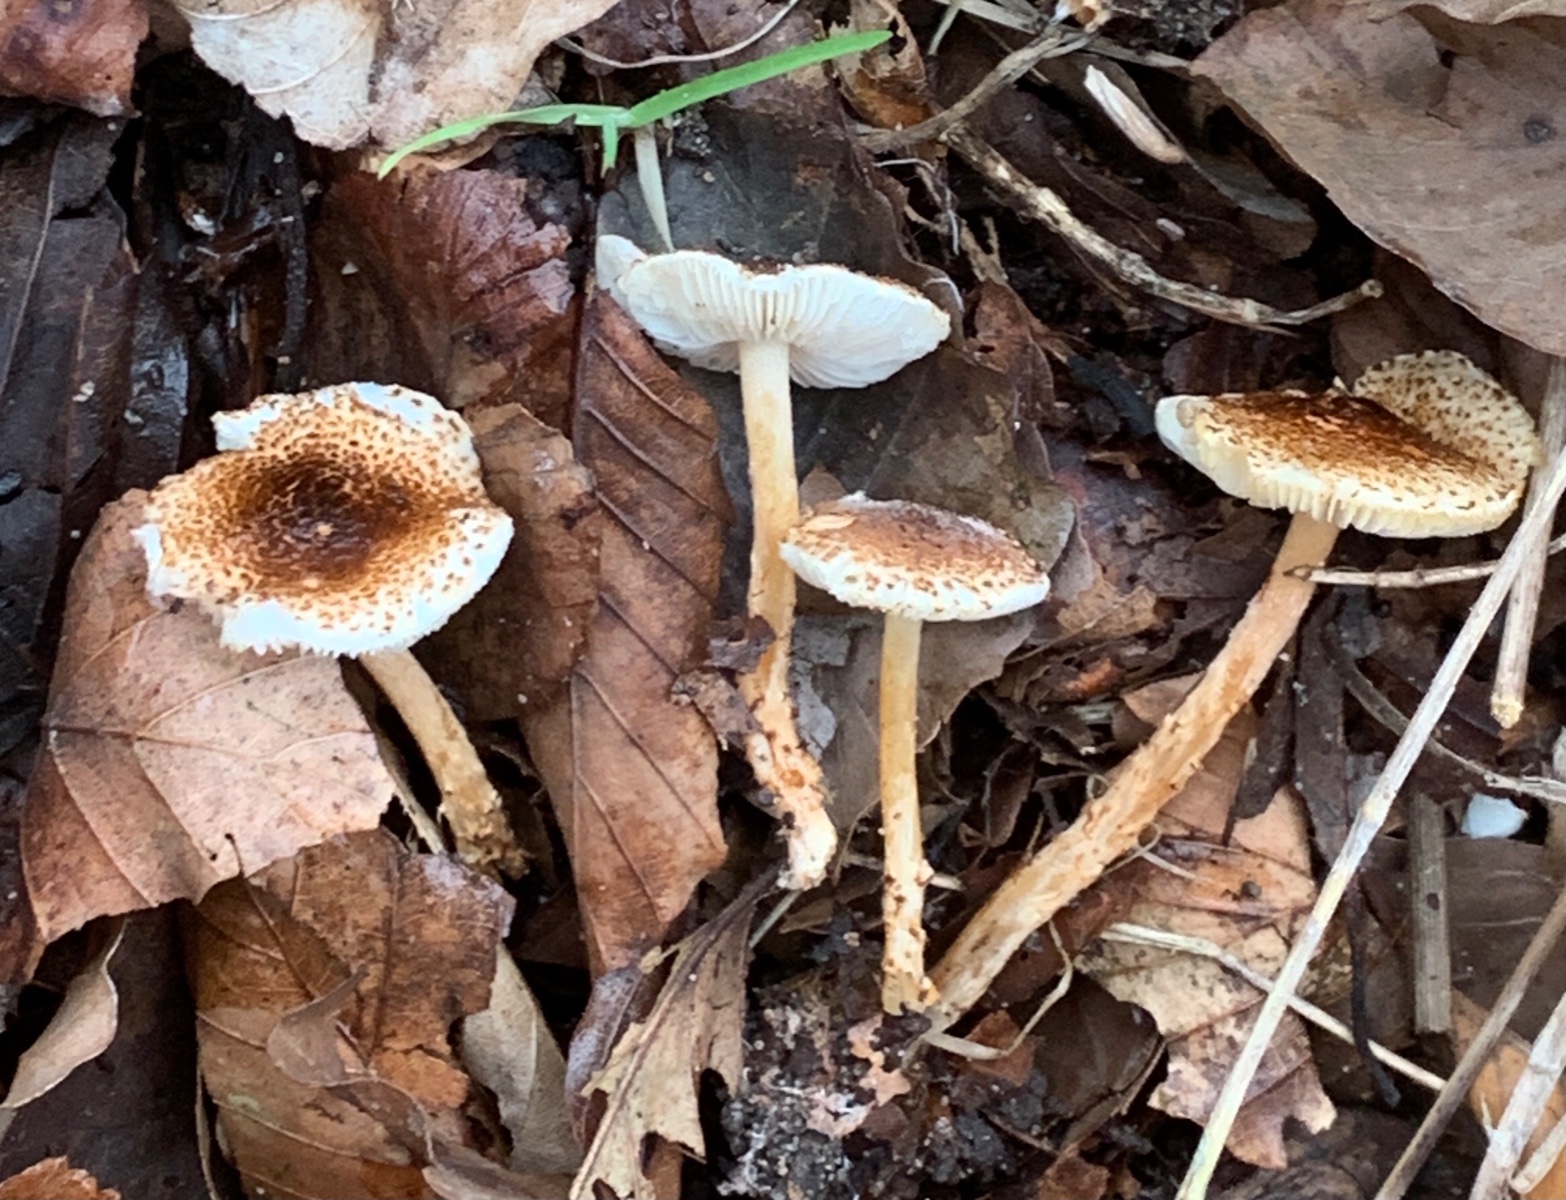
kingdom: Fungi
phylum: Basidiomycota
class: Agaricomycetes
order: Agaricales
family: Agaricaceae
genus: Lepiota
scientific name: Lepiota castanea
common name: kastaniebrun parasolhat
